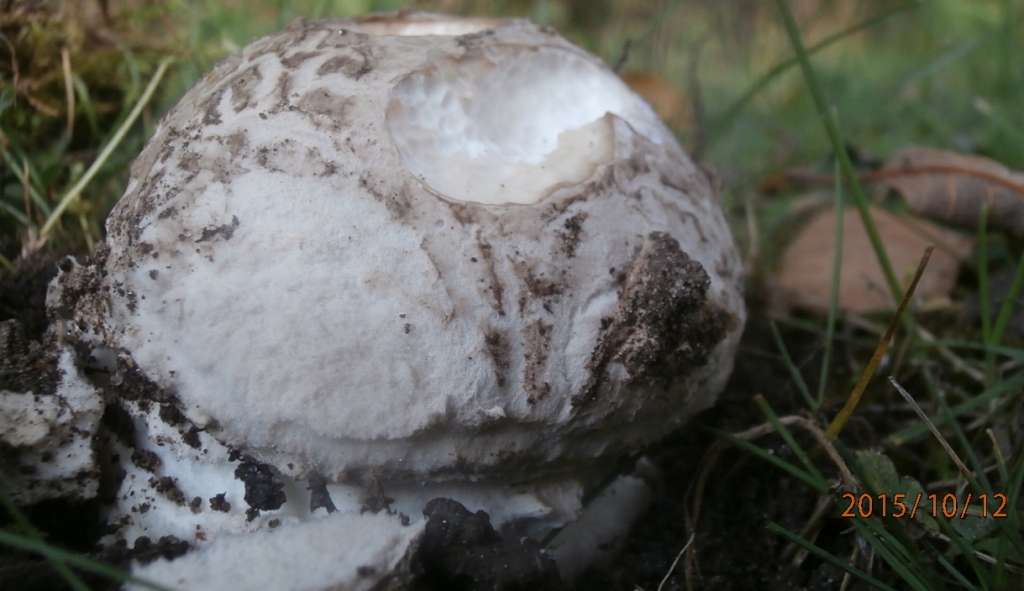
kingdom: Fungi
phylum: Basidiomycota
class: Agaricomycetes
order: Agaricales
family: Amanitaceae
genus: Amanita
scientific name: Amanita
